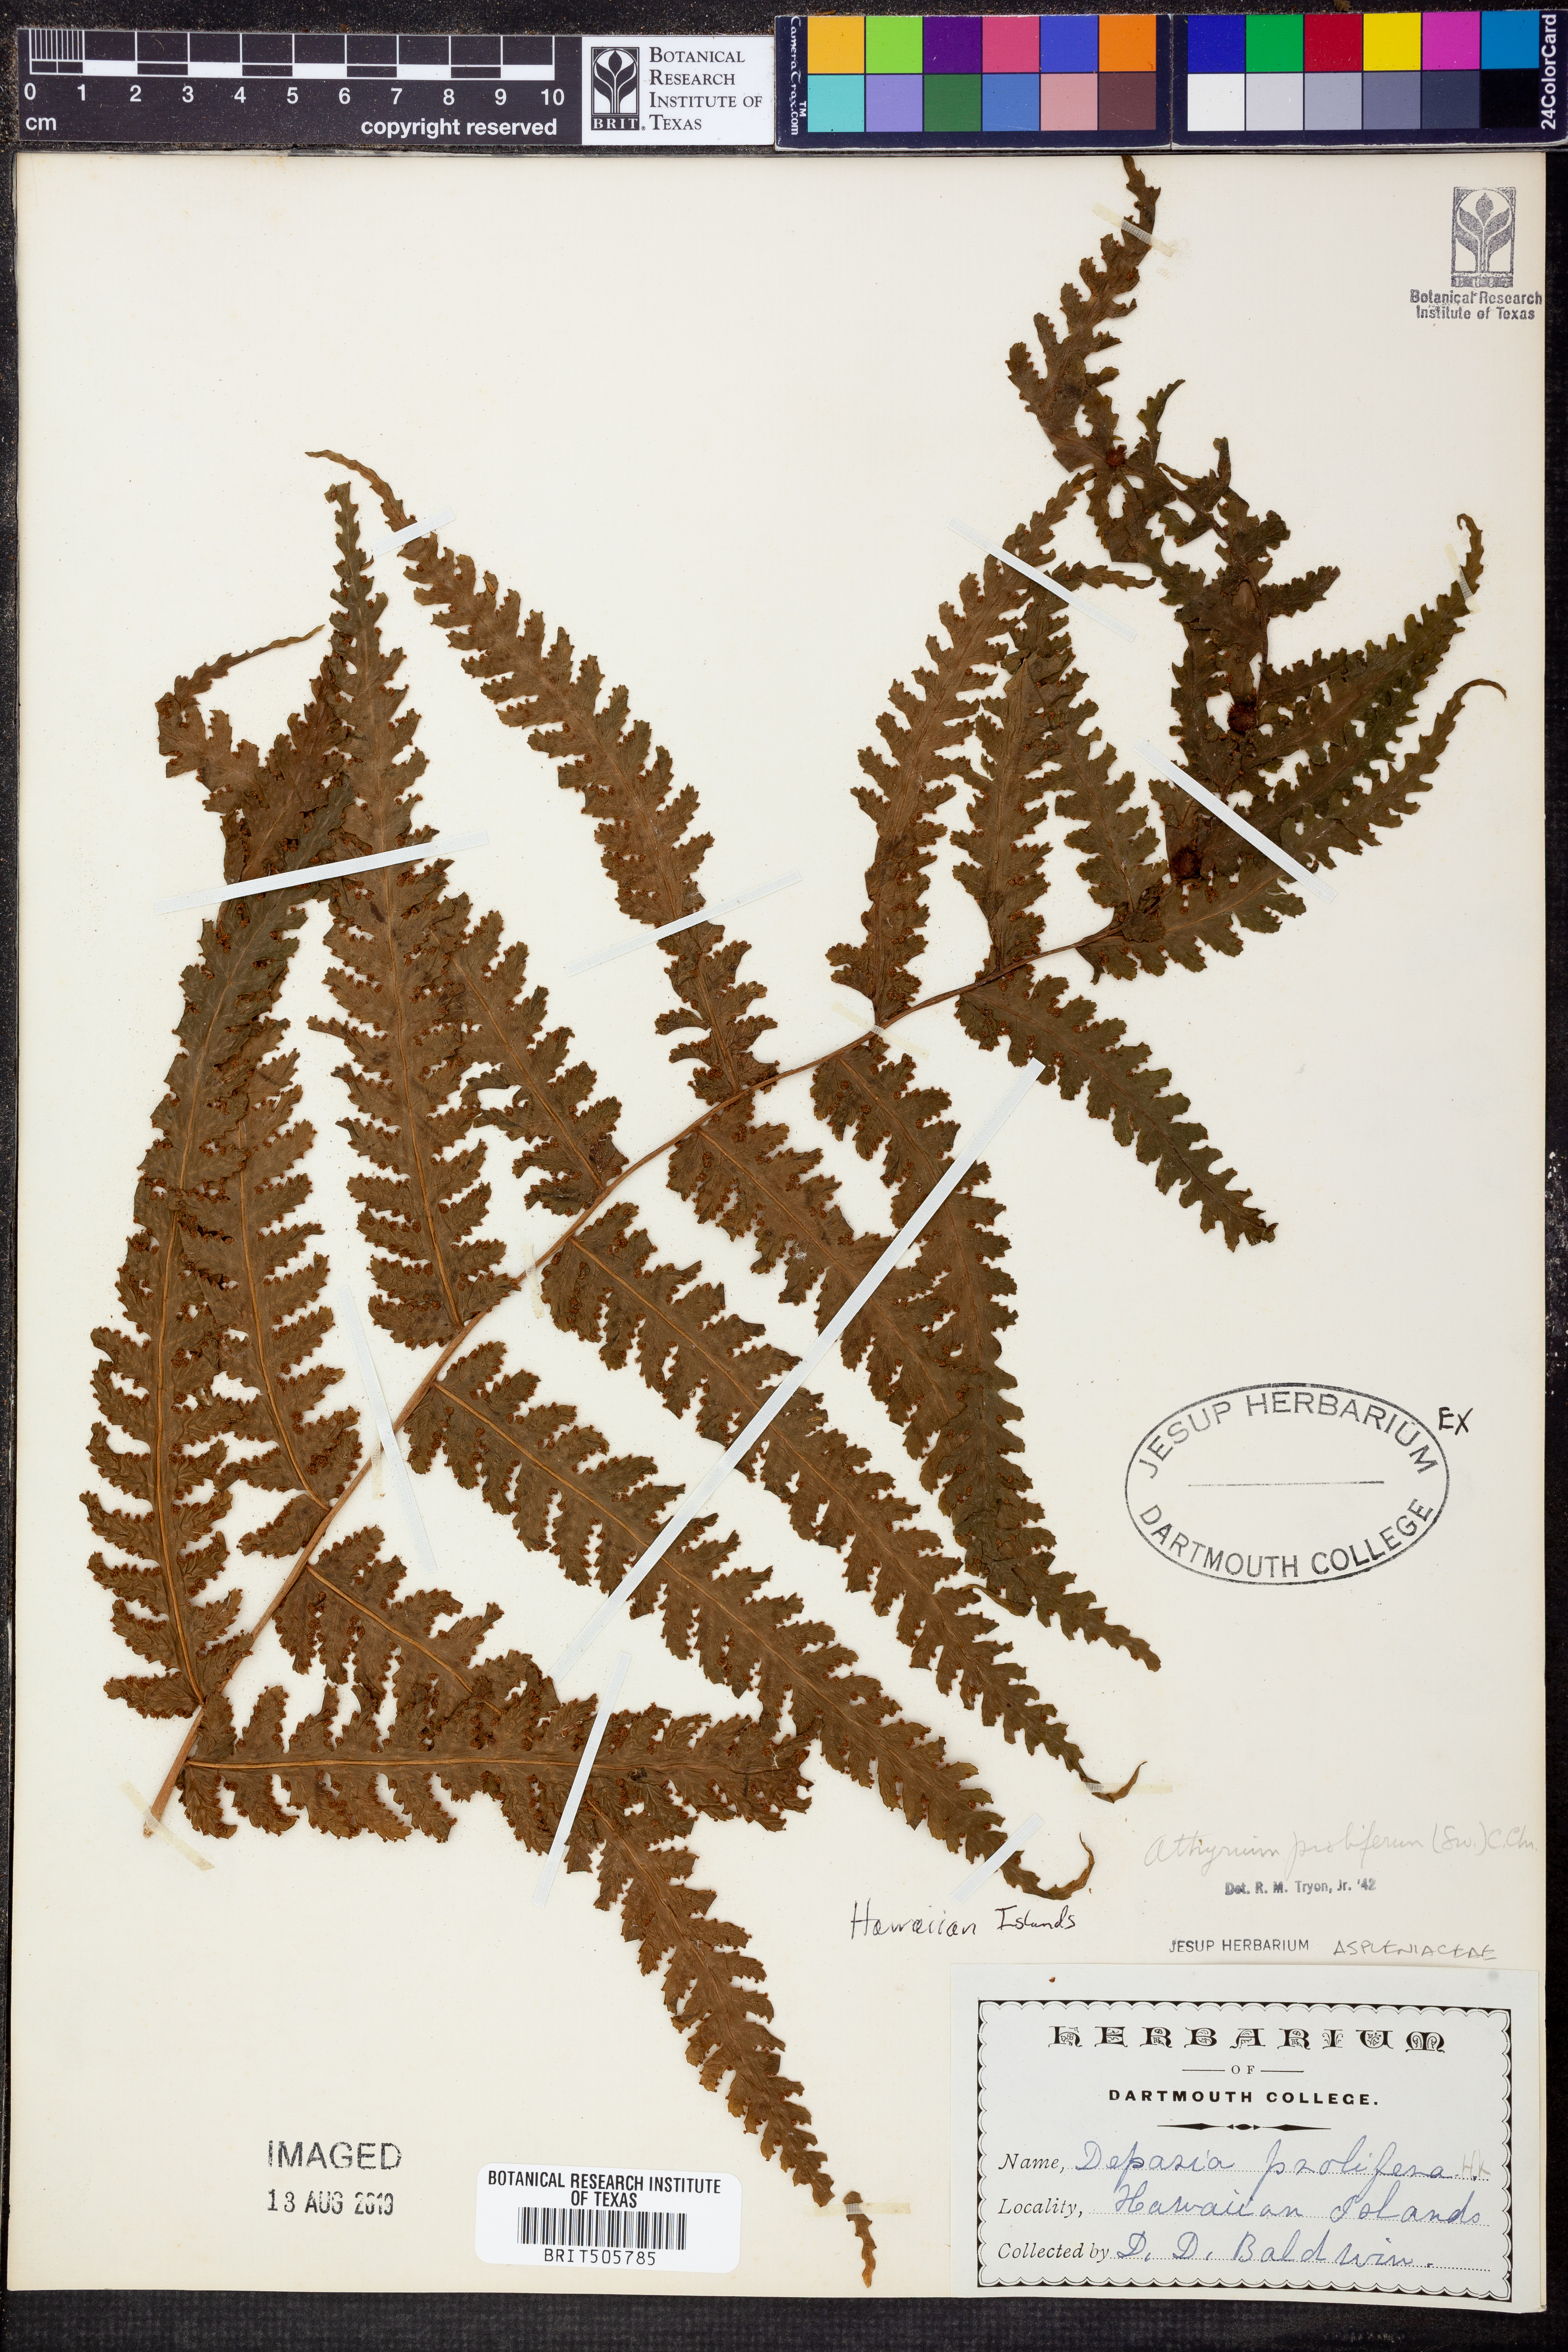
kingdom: Plantae
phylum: Tracheophyta
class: Polypodiopsida
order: Polypodiales
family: Athyriaceae
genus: Deparia
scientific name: Deparia prolifera
